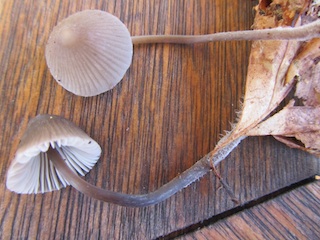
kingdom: Fungi
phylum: Basidiomycota
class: Agaricomycetes
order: Agaricales
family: Mycenaceae
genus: Mycena
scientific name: Mycena filopes
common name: jod-huesvamp
